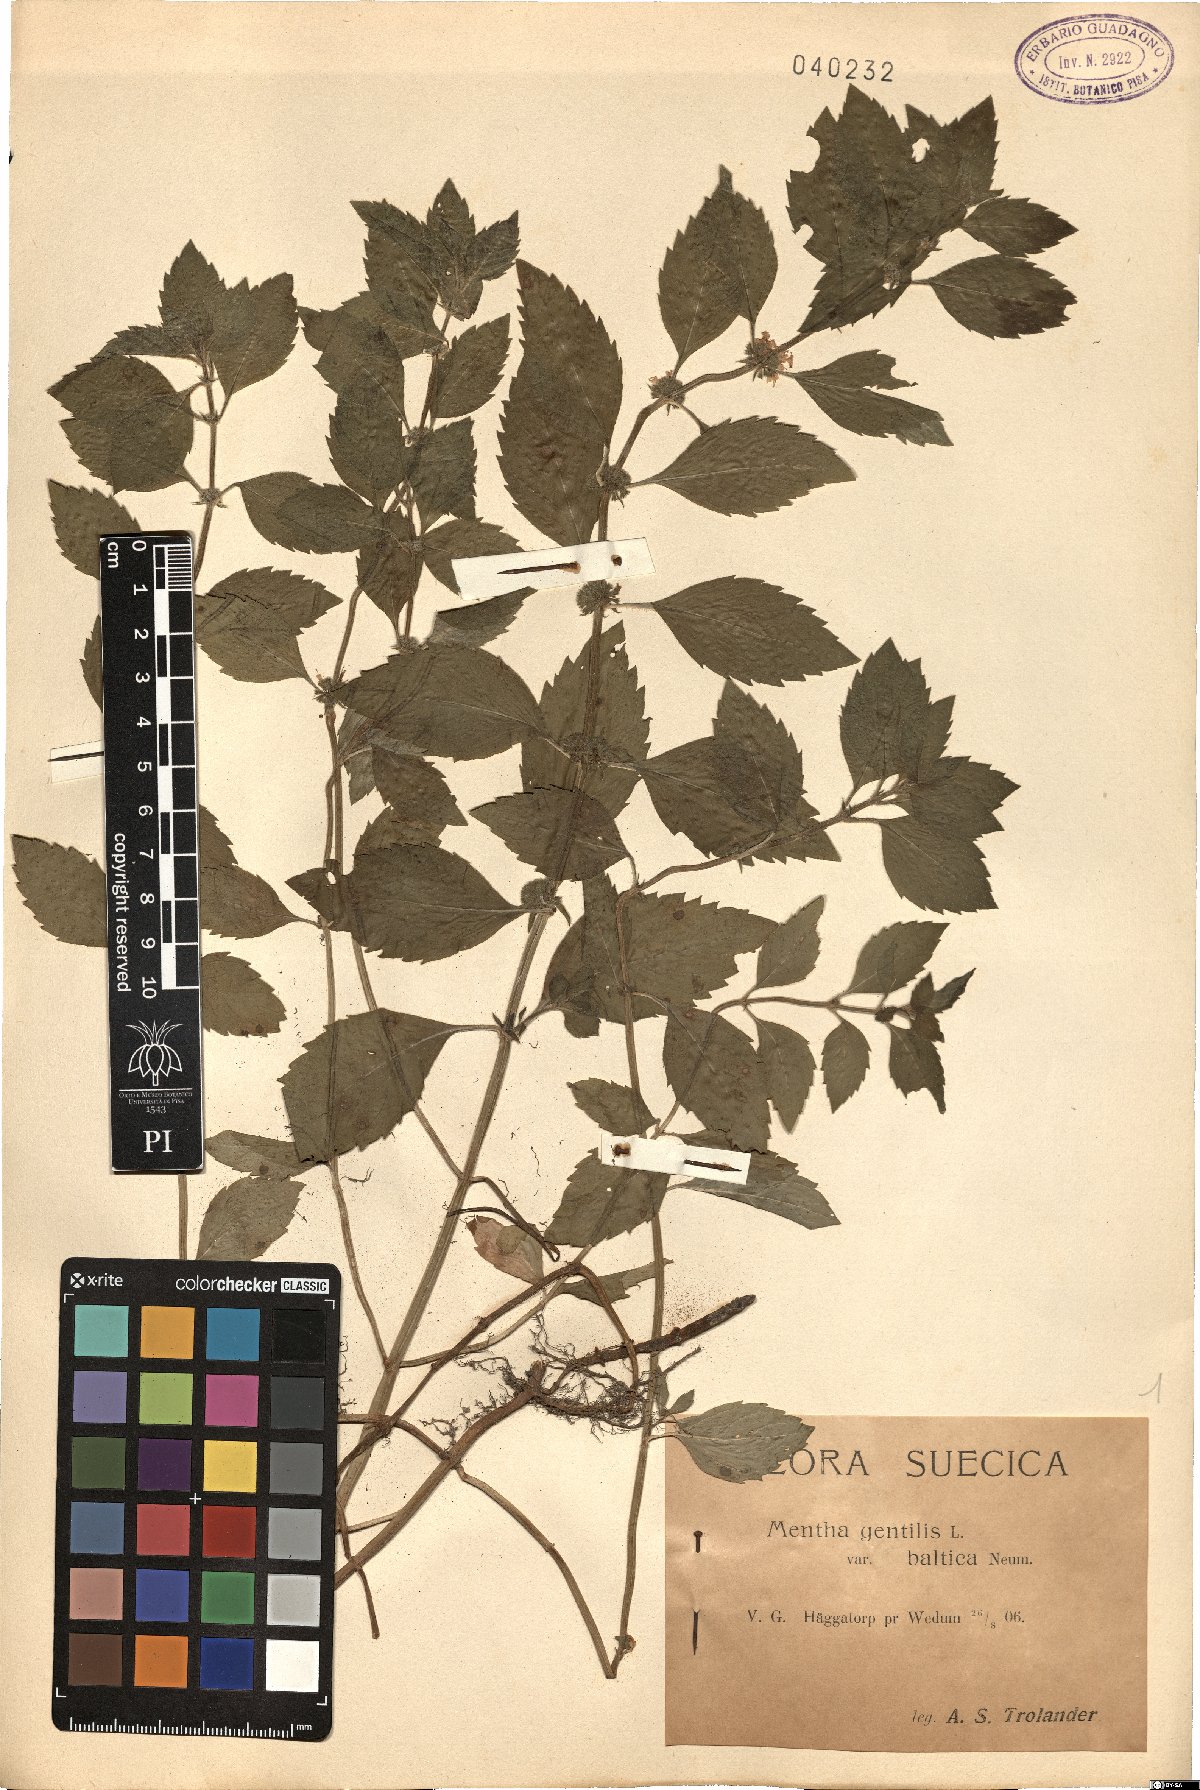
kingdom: Plantae
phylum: Tracheophyta
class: Magnoliopsida
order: Lamiales
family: Lamiaceae
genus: Mentha
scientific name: Mentha gentilis
